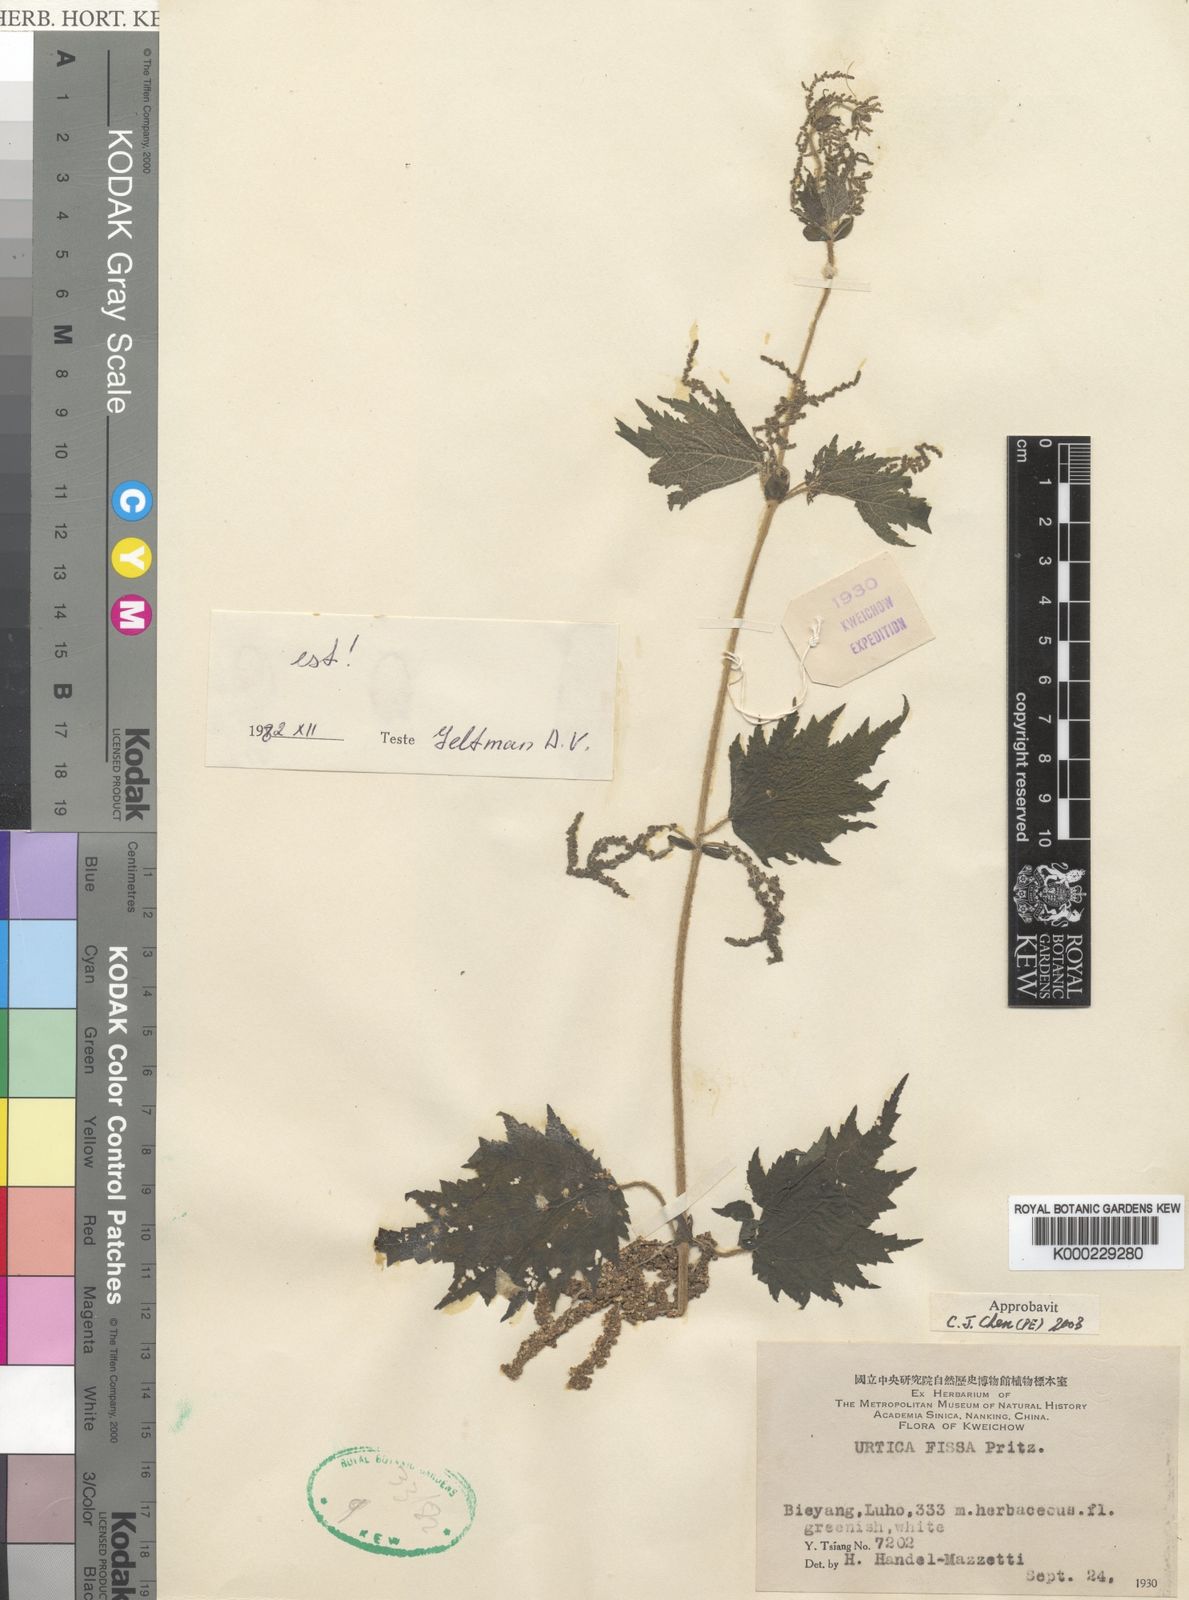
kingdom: Plantae
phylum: Tracheophyta
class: Magnoliopsida
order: Rosales
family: Urticaceae
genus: Urtica
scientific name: Urtica
